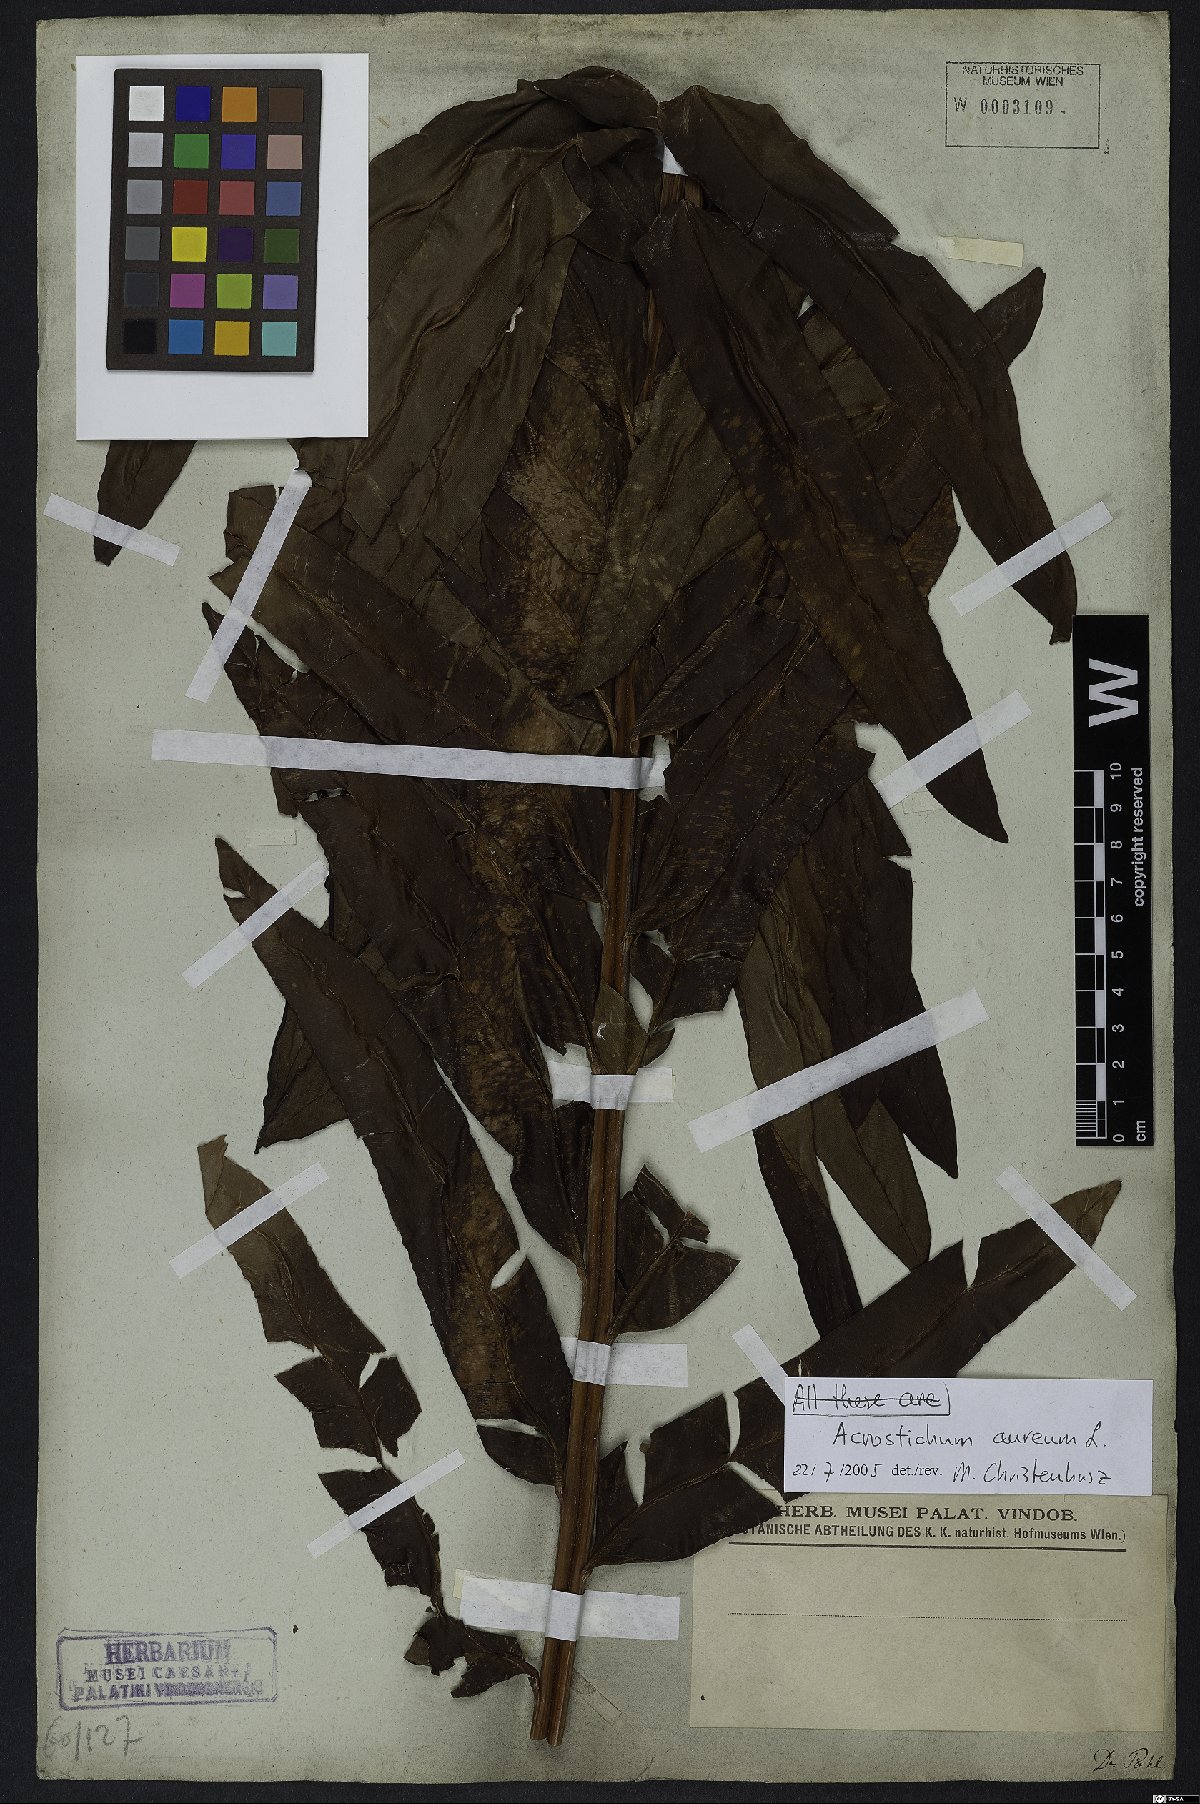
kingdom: Plantae
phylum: Tracheophyta
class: Polypodiopsida
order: Polypodiales
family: Pteridaceae
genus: Acrostichum
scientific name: Acrostichum aureum
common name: Leather fern
